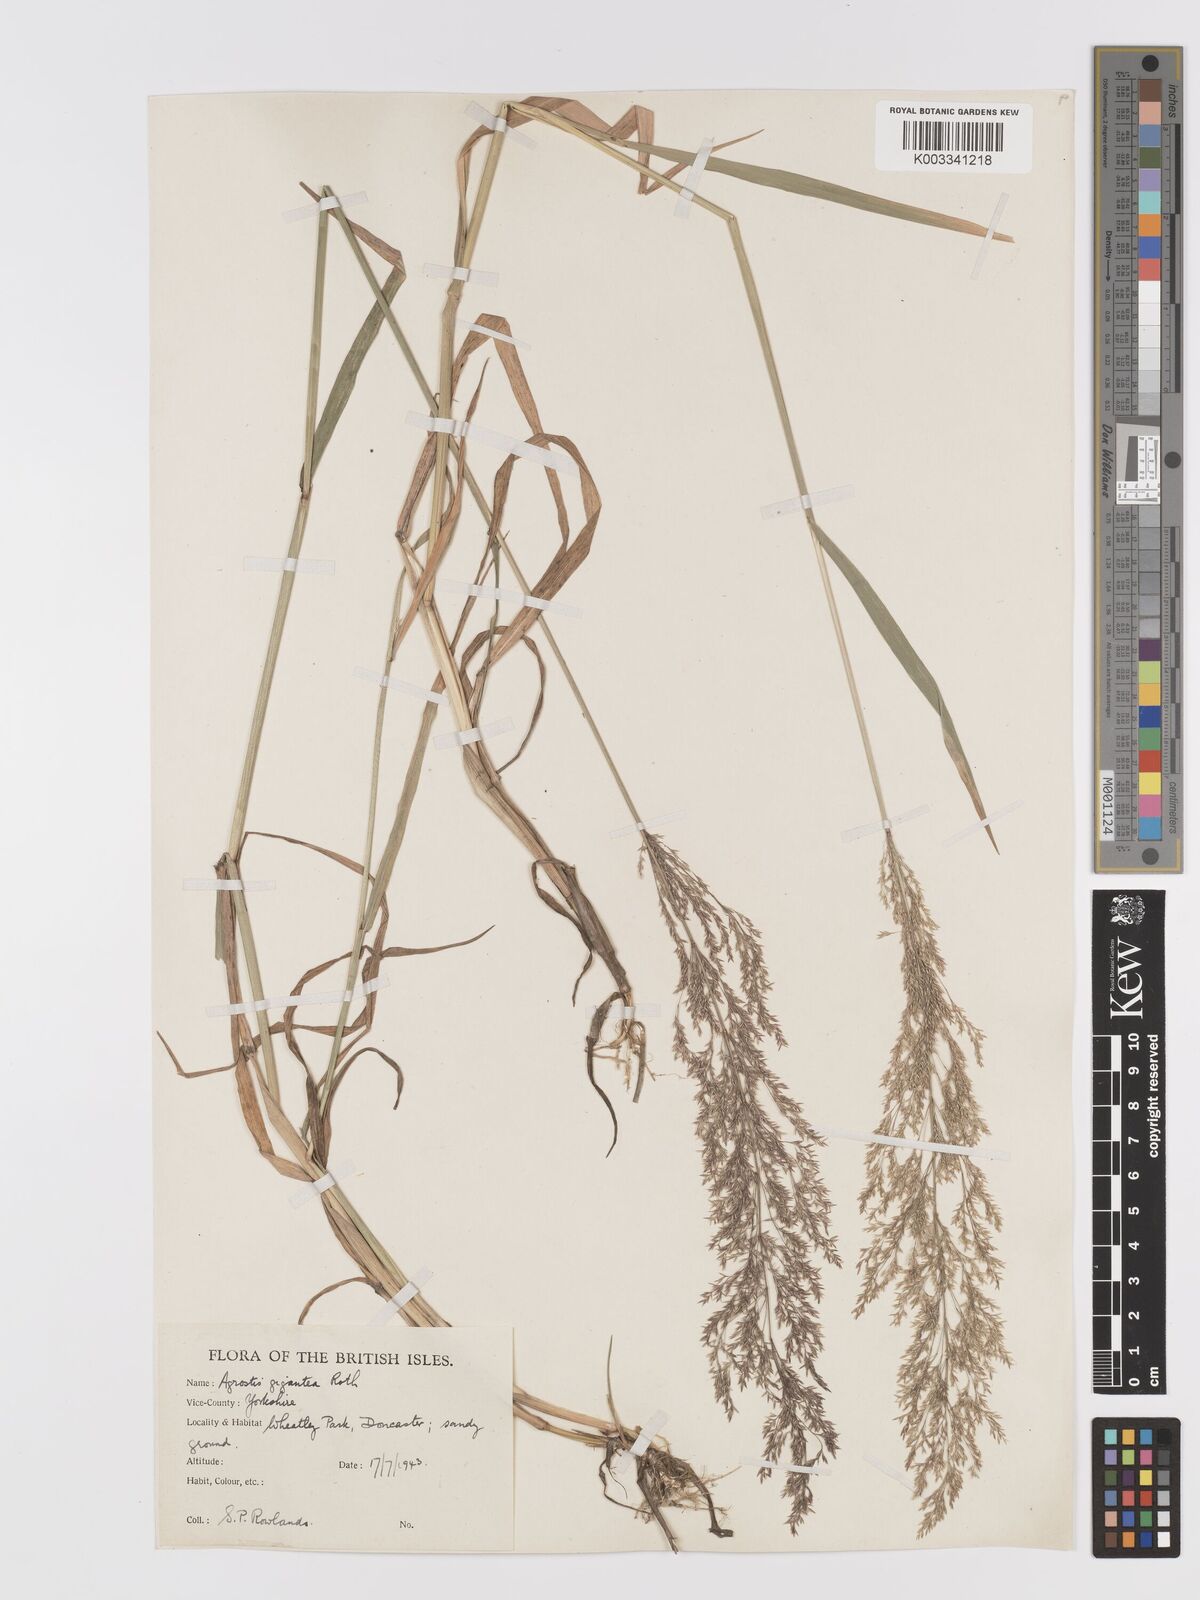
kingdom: Plantae
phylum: Tracheophyta
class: Liliopsida
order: Poales
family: Poaceae
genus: Agrostis
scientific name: Agrostis gigantea
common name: Black bent
